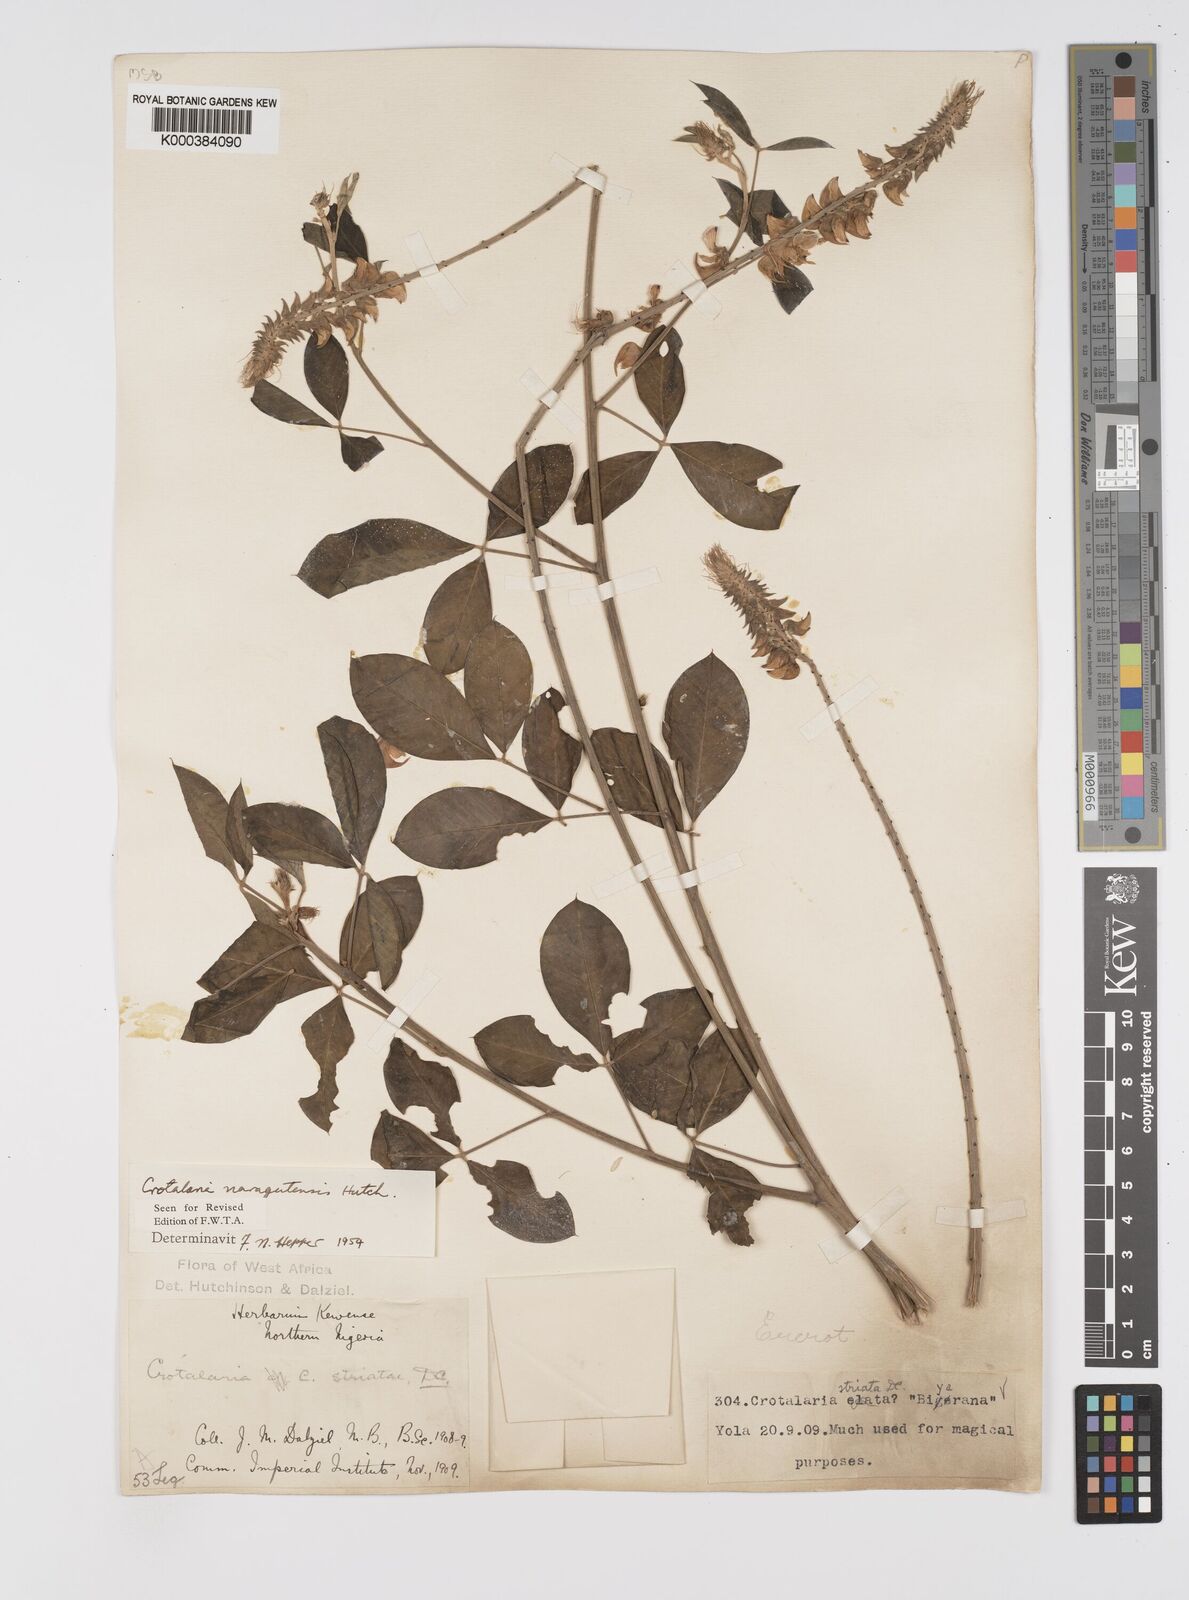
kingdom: Plantae
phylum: Tracheophyta
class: Magnoliopsida
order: Fabales
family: Fabaceae
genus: Crotalaria
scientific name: Crotalaria naragutensis
